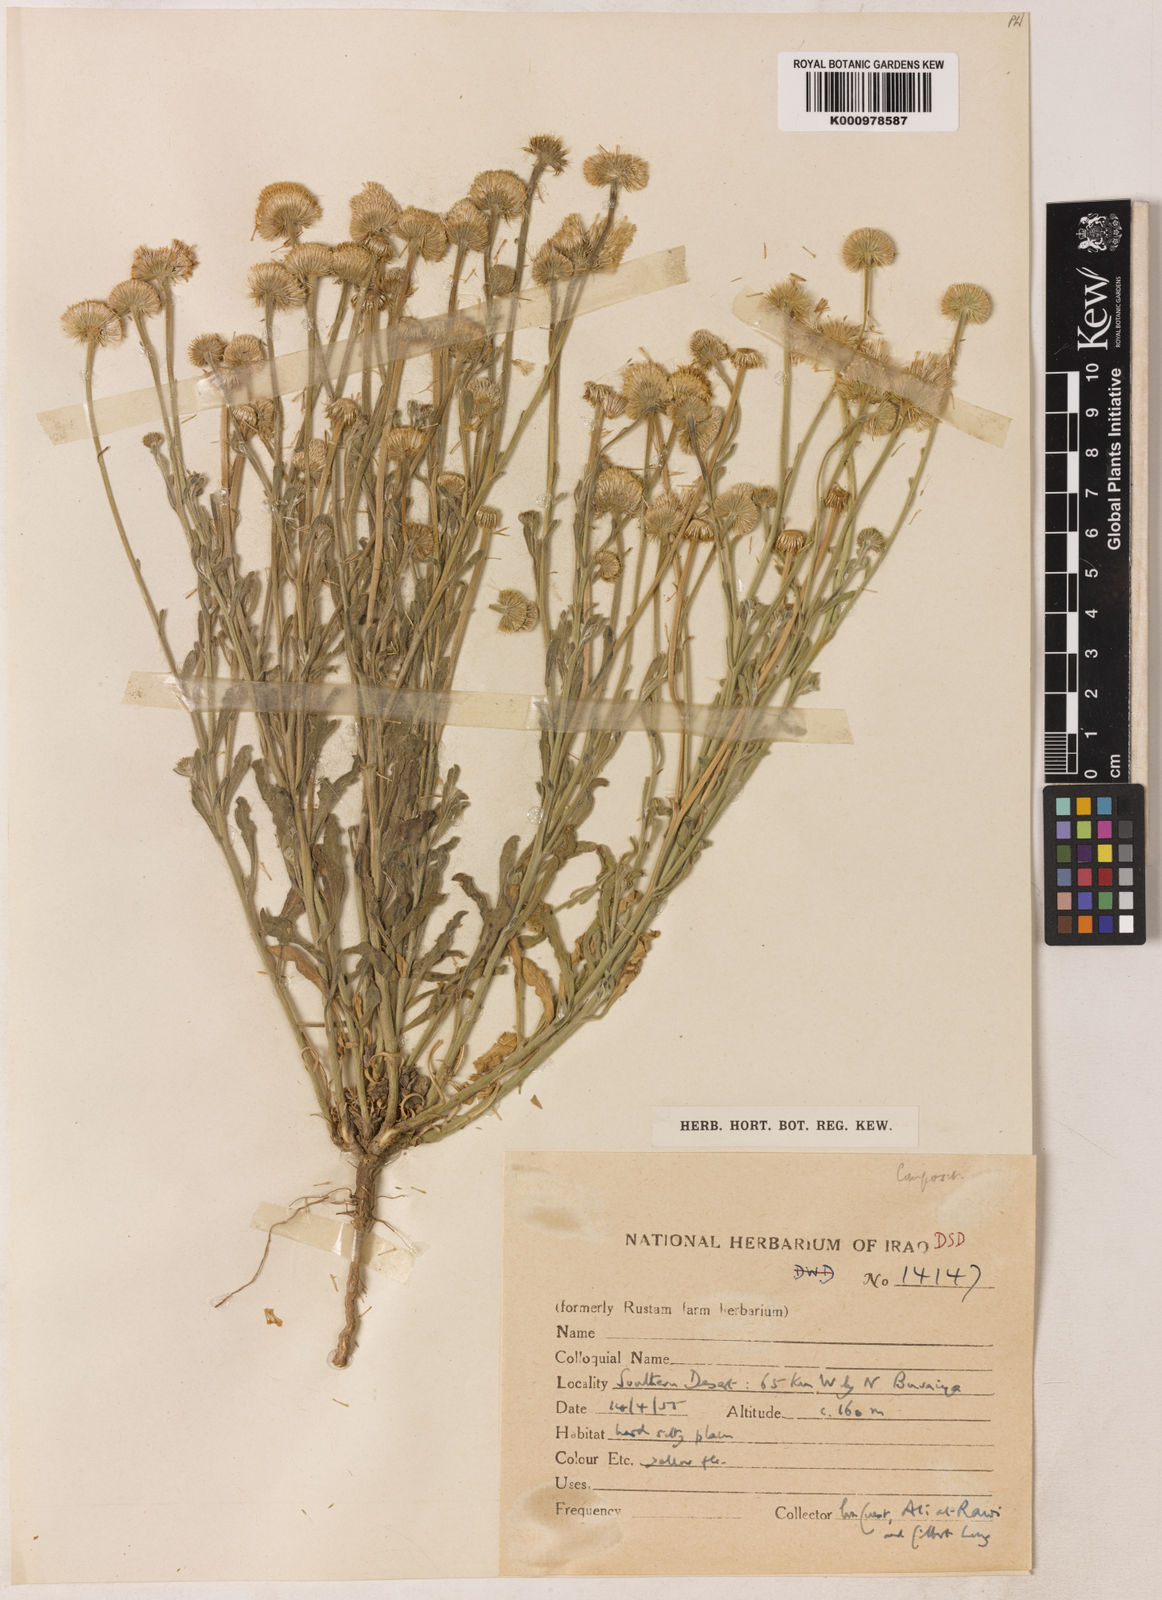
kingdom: Plantae
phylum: Tracheophyta
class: Magnoliopsida
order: Asterales
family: Asteraceae
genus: Pulicaria
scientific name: Pulicaria guestii
